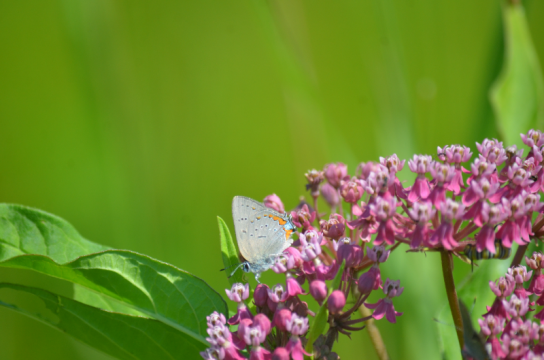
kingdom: Animalia
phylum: Arthropoda
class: Insecta
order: Lepidoptera
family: Lycaenidae
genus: Strymon
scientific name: Strymon acadica
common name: Acadian Hairstreak
